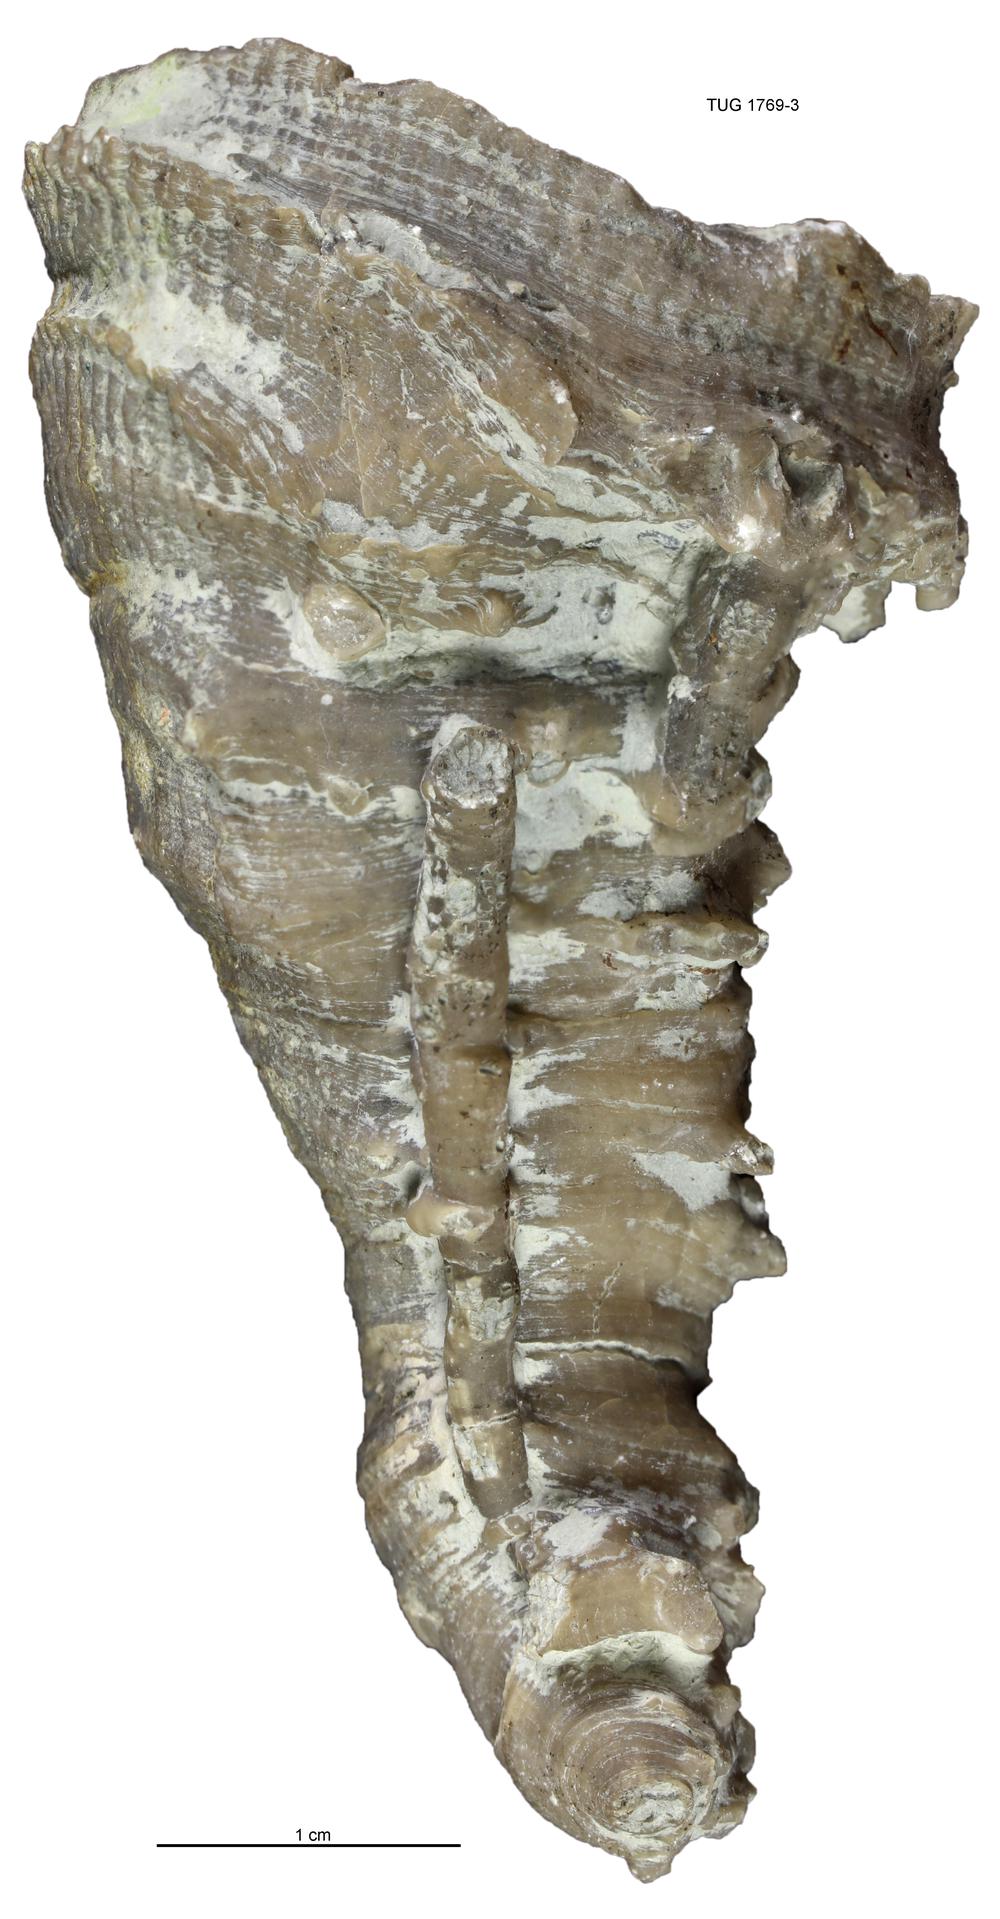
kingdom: Animalia
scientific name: Animalia
